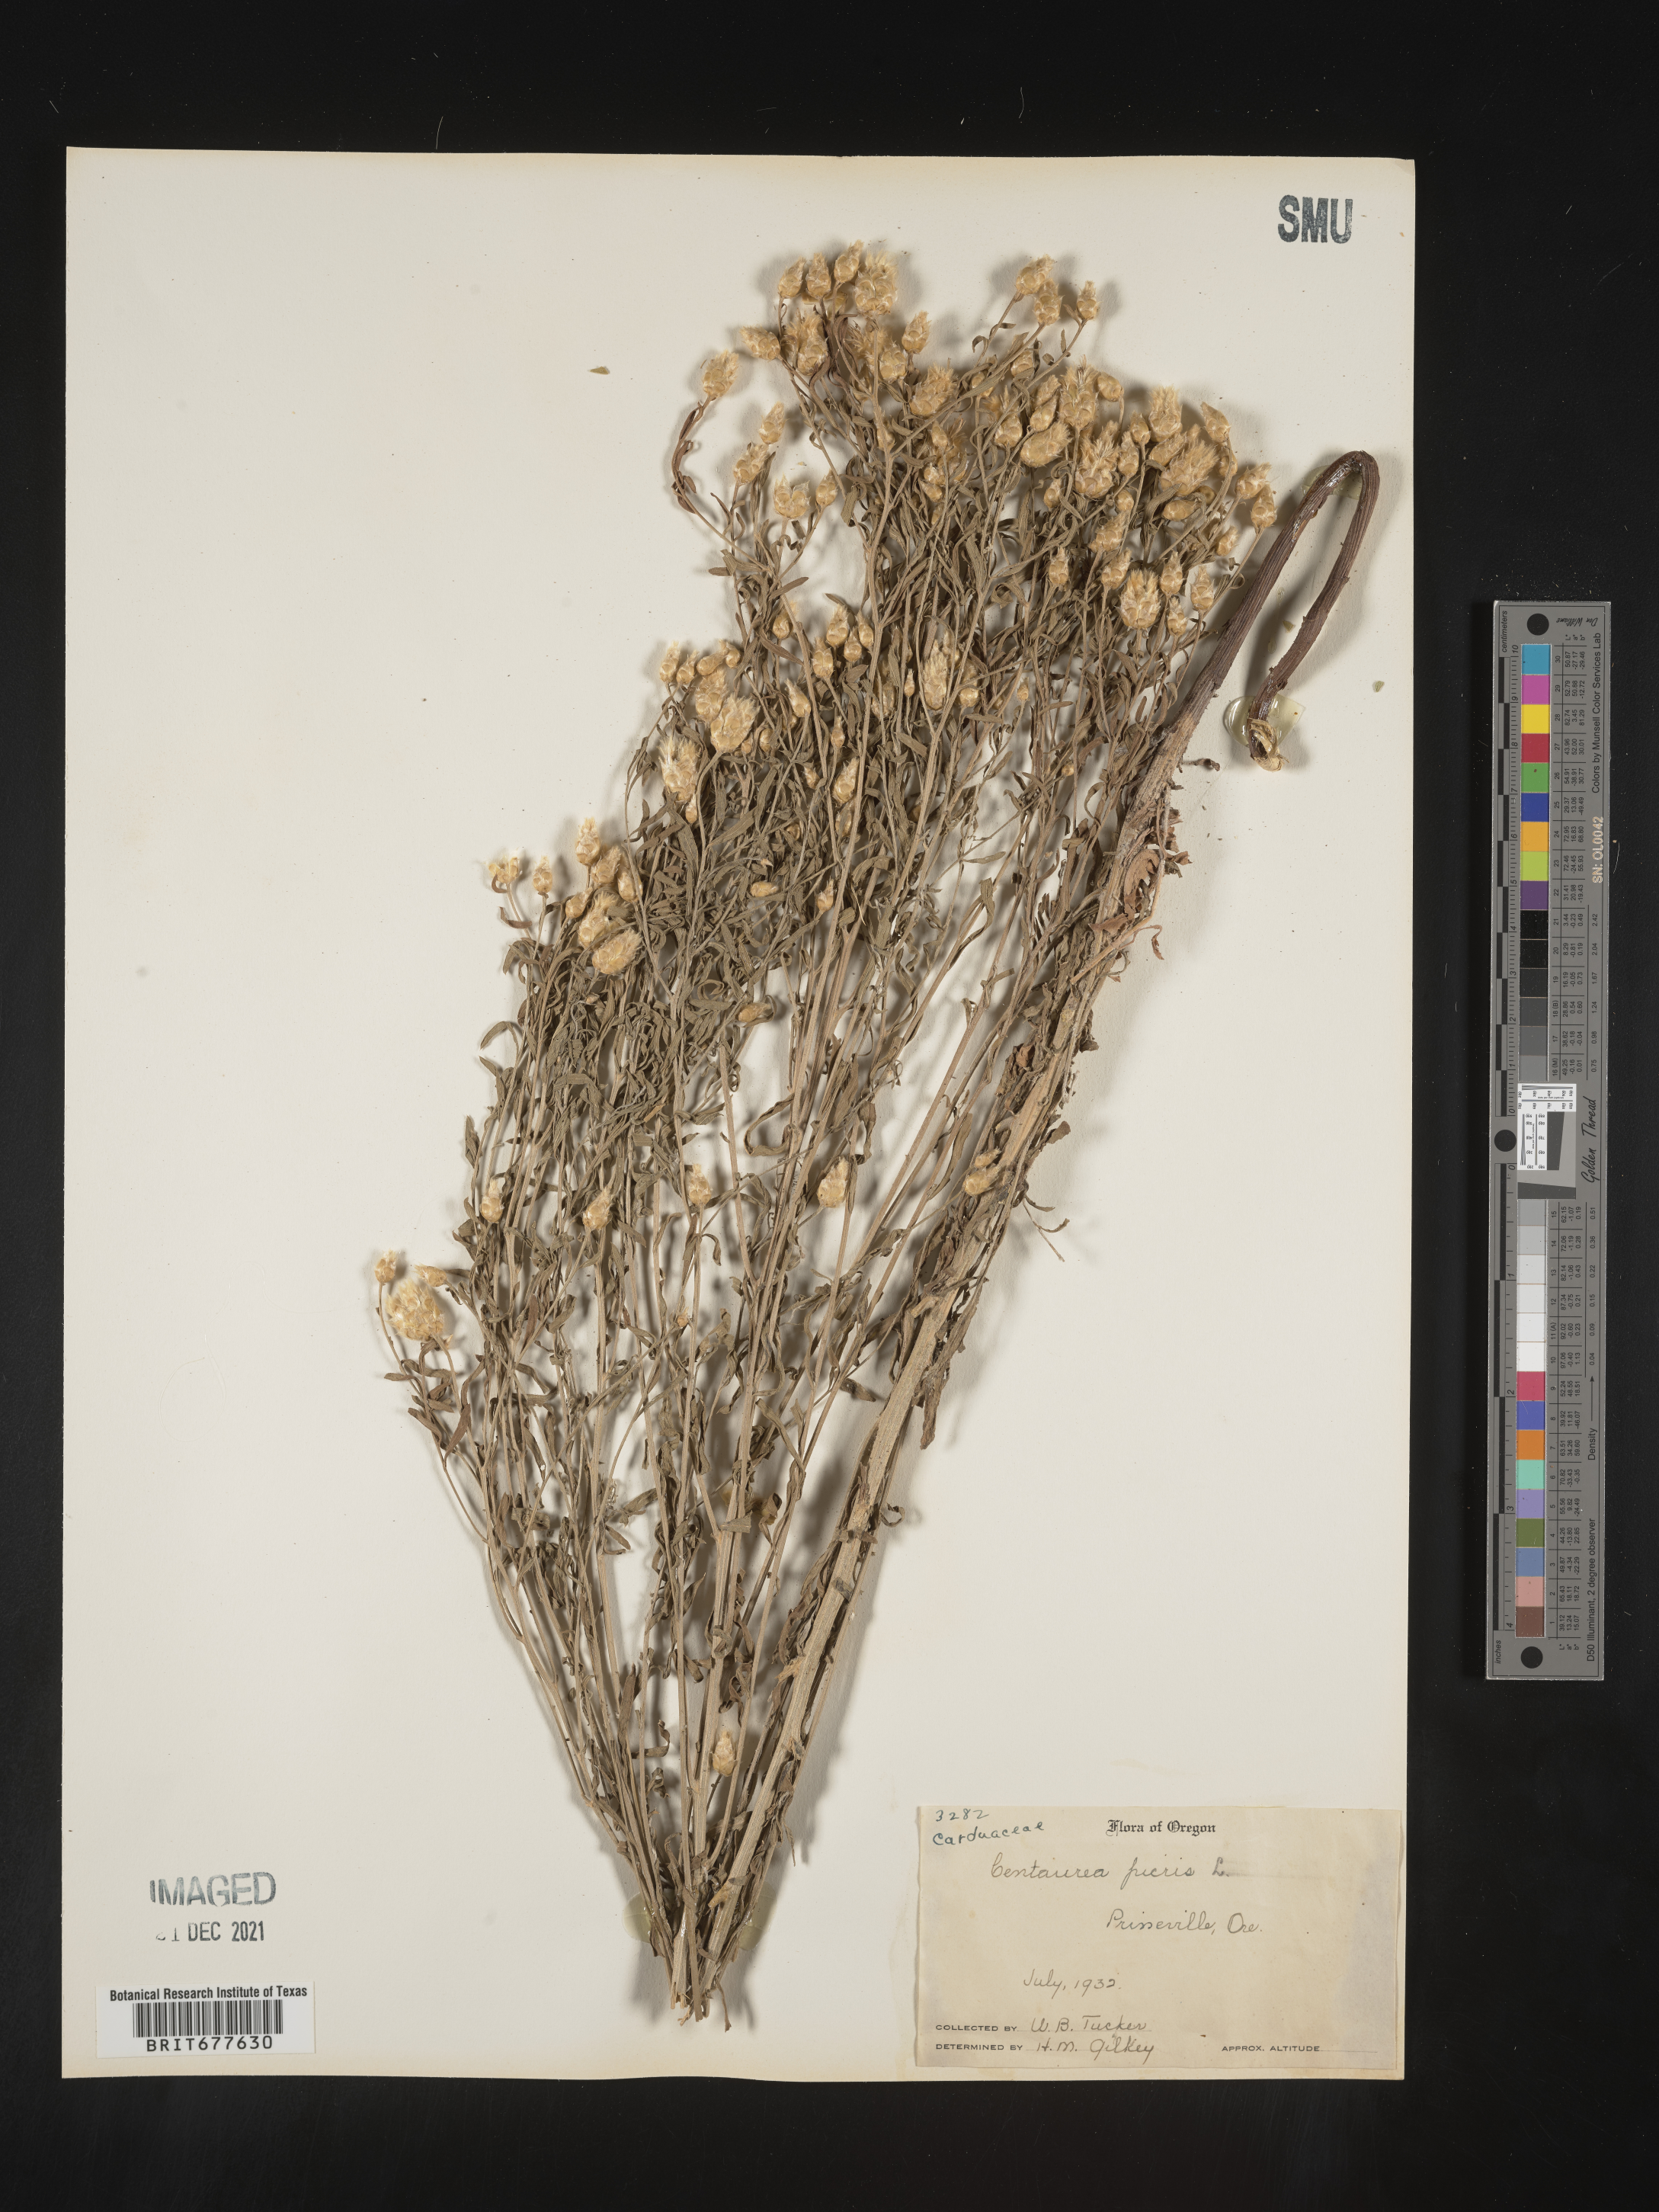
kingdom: Plantae
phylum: Tracheophyta
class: Magnoliopsida
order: Asterales
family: Asteraceae
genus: Leuzea
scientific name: Leuzea repens
